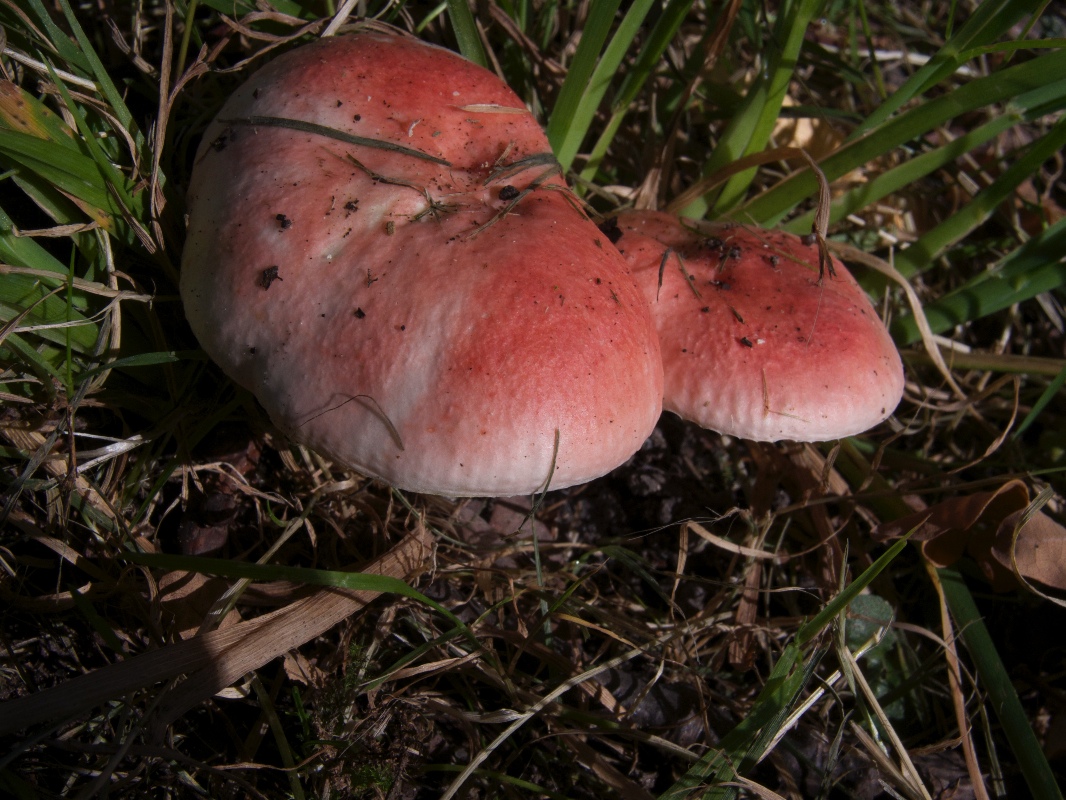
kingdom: Fungi
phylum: Basidiomycota
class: Agaricomycetes
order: Russulales
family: Russulaceae
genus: Russula
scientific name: Russula luteotacta
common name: gulplettet gift-skørhat
